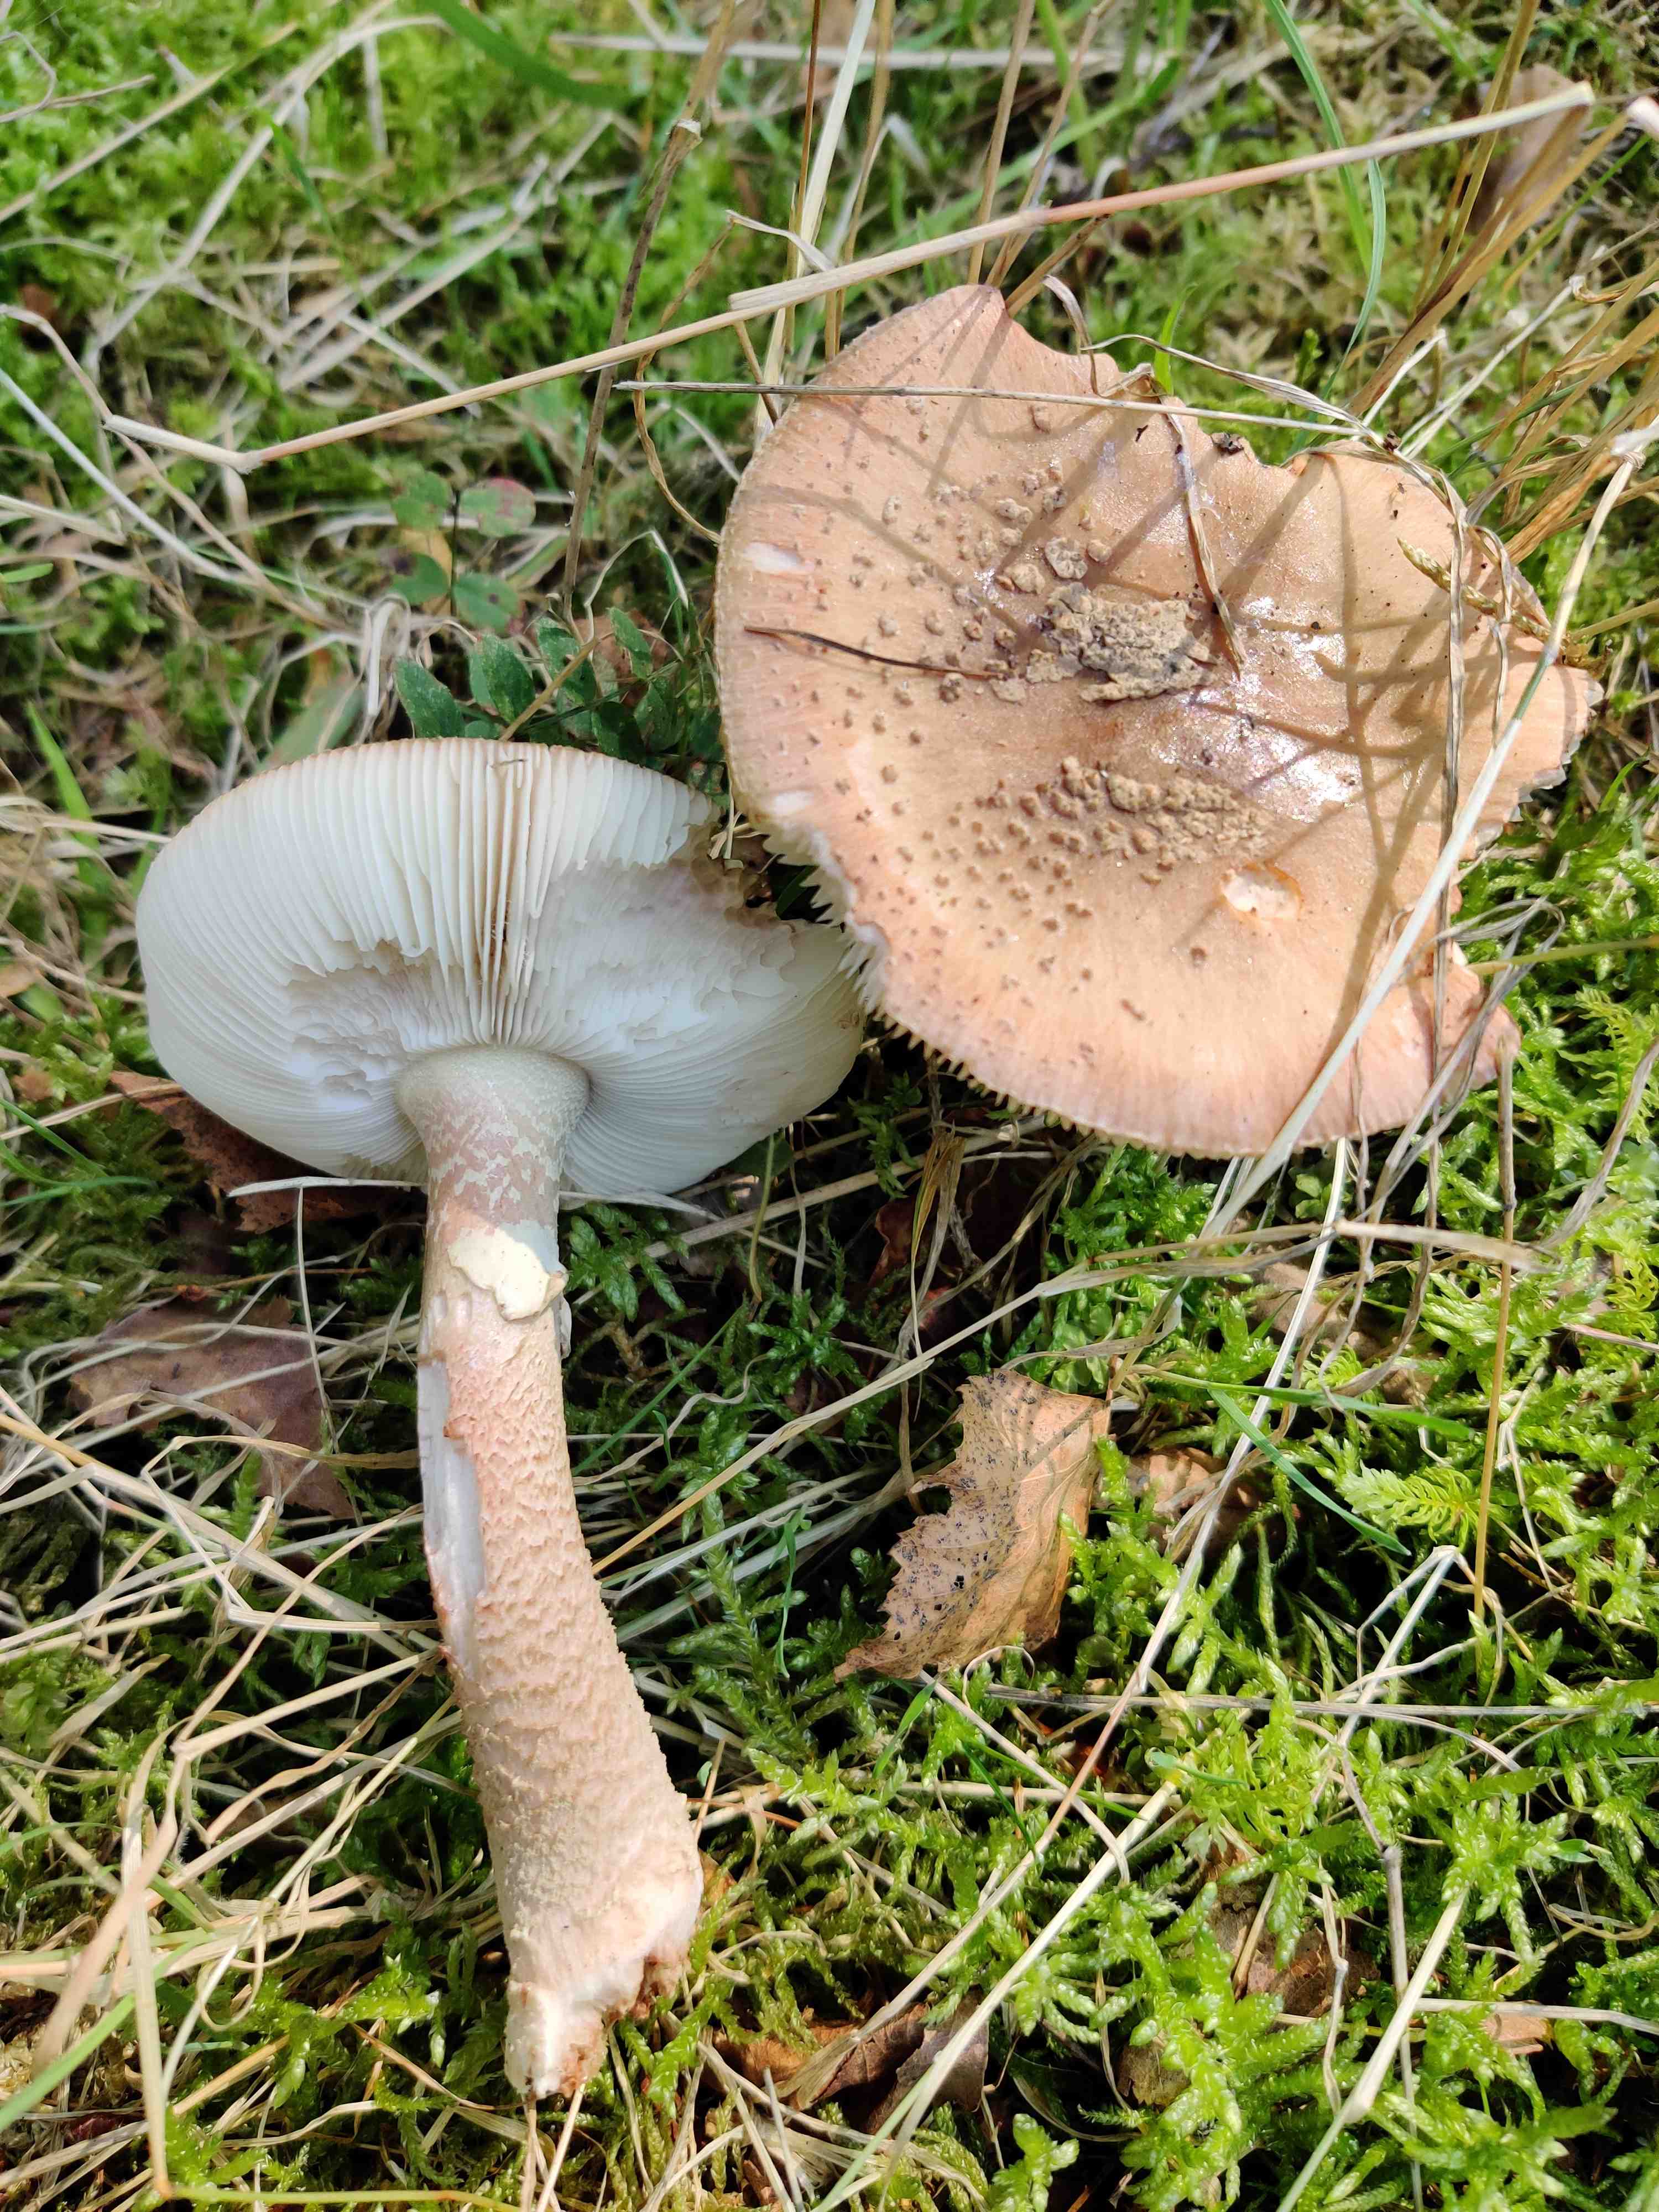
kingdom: Fungi
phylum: Basidiomycota
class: Agaricomycetes
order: Agaricales
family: Amanitaceae
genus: Amanita
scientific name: Amanita rubescens
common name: rødmende fluesvamp
